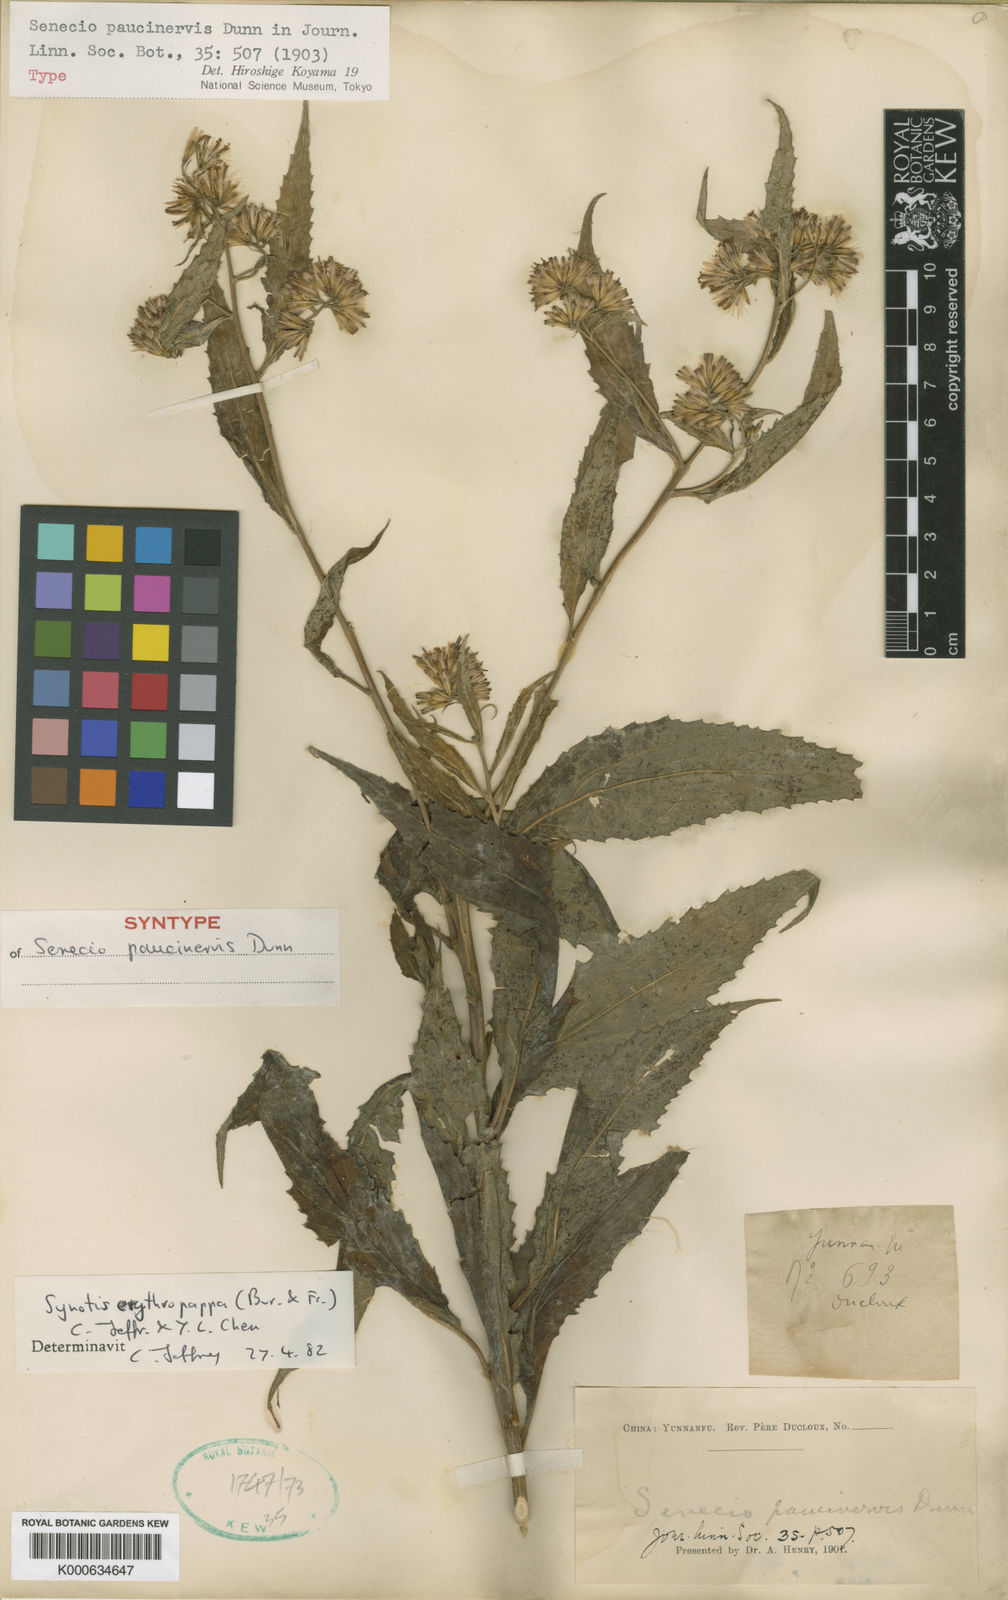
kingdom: Plantae
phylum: Tracheophyta
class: Magnoliopsida
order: Asterales
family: Asteraceae
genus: Synotis
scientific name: Synotis erythropappa
